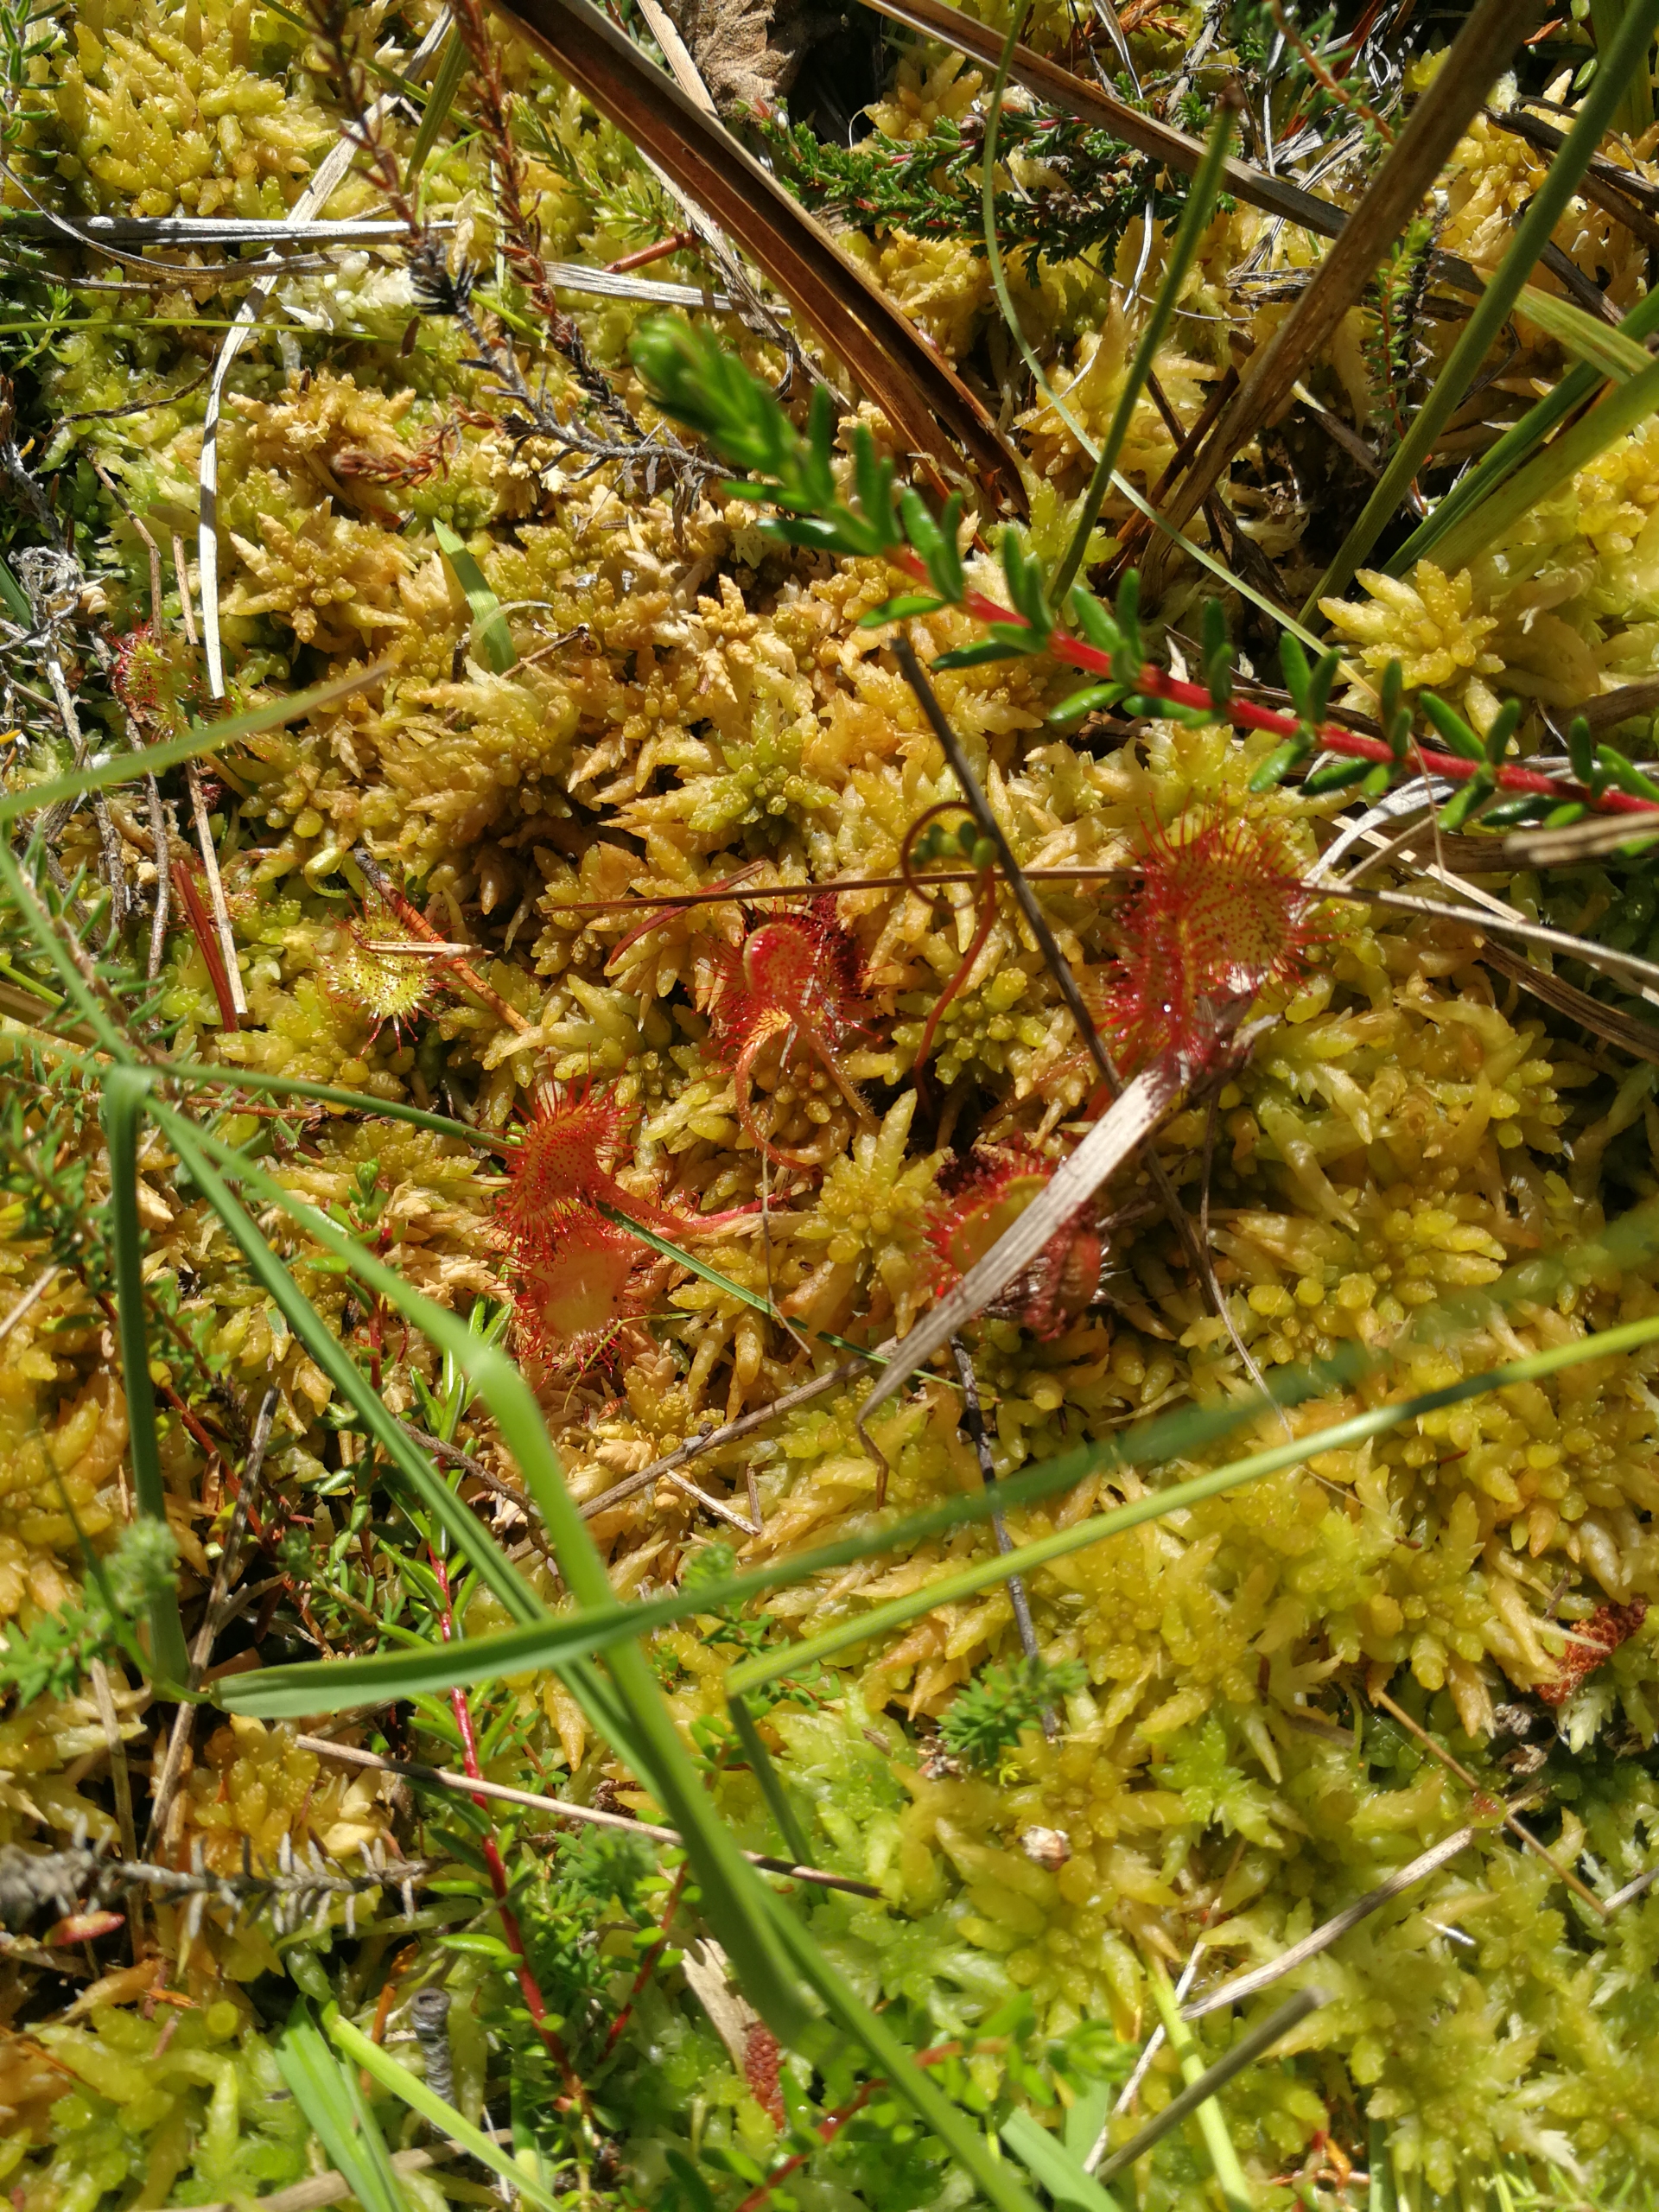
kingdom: Plantae
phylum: Tracheophyta
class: Magnoliopsida
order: Caryophyllales
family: Droseraceae
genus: Drosera
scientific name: Drosera rotundifolia
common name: Rundbladet soldug
